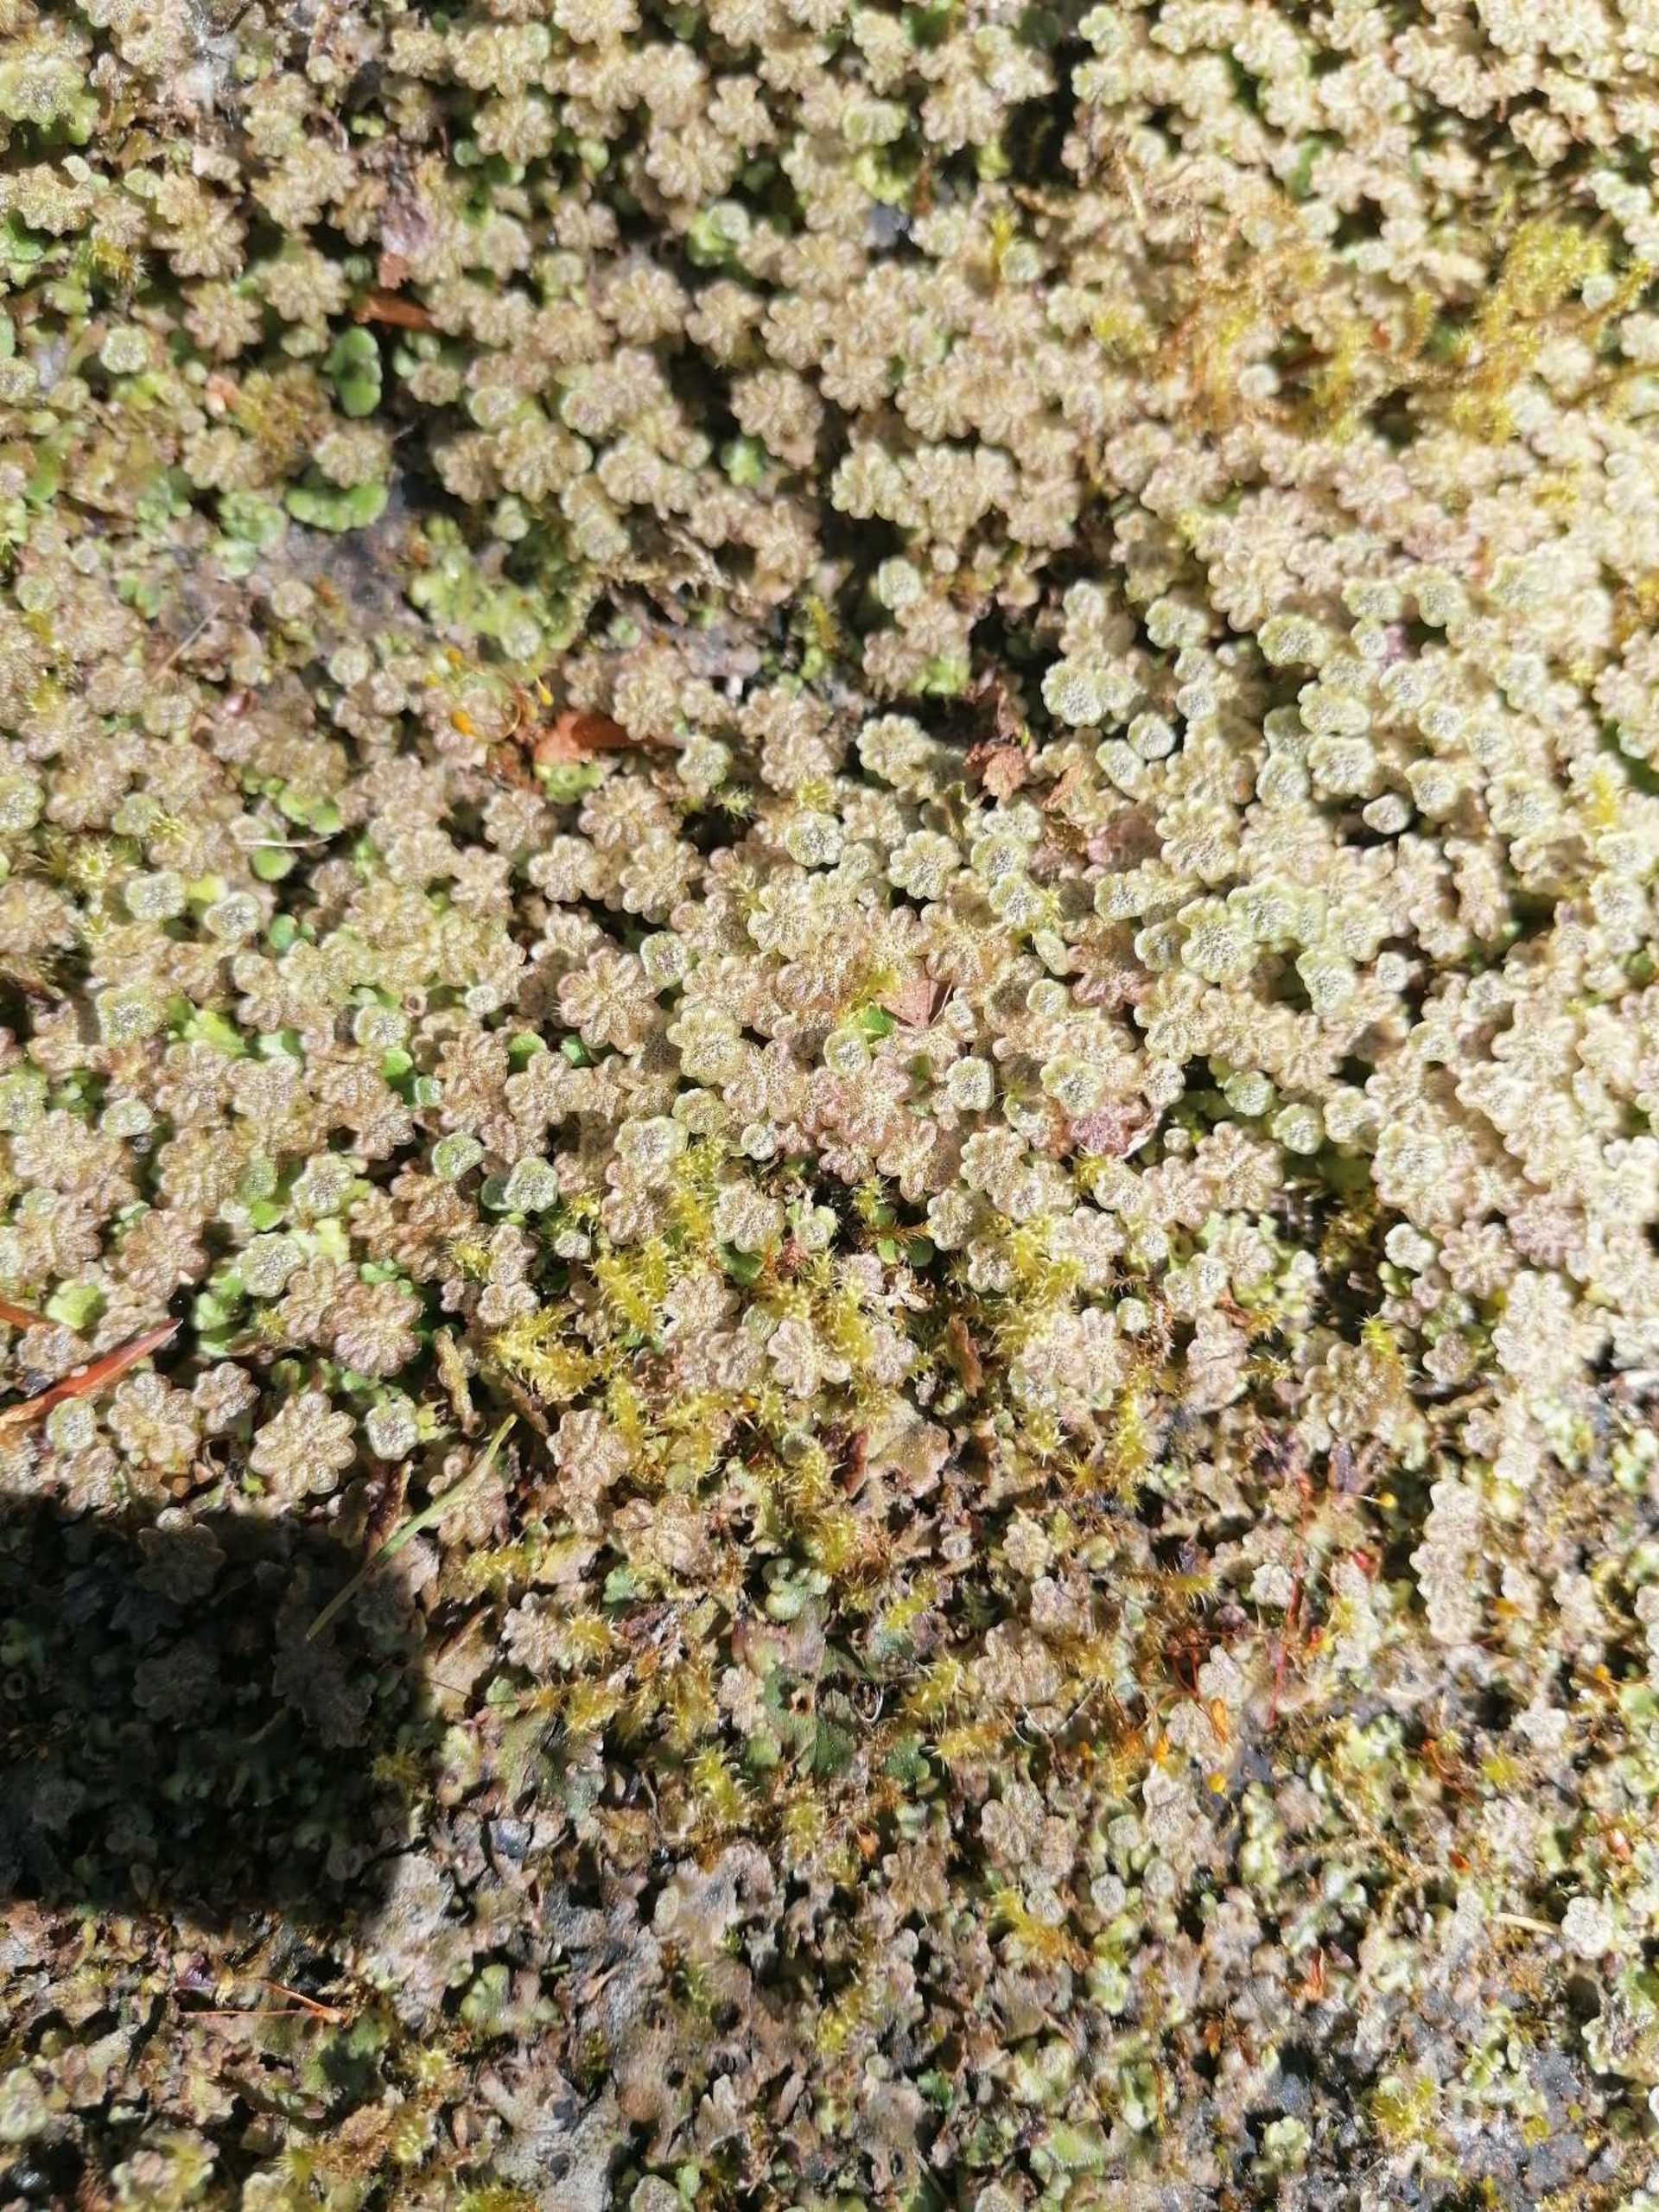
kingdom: Plantae
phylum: Marchantiophyta
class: Marchantiopsida
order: Marchantiales
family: Marchantiaceae
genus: Marchantia
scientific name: Marchantia polymorpha
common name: Almindelig lungemos (underart)
